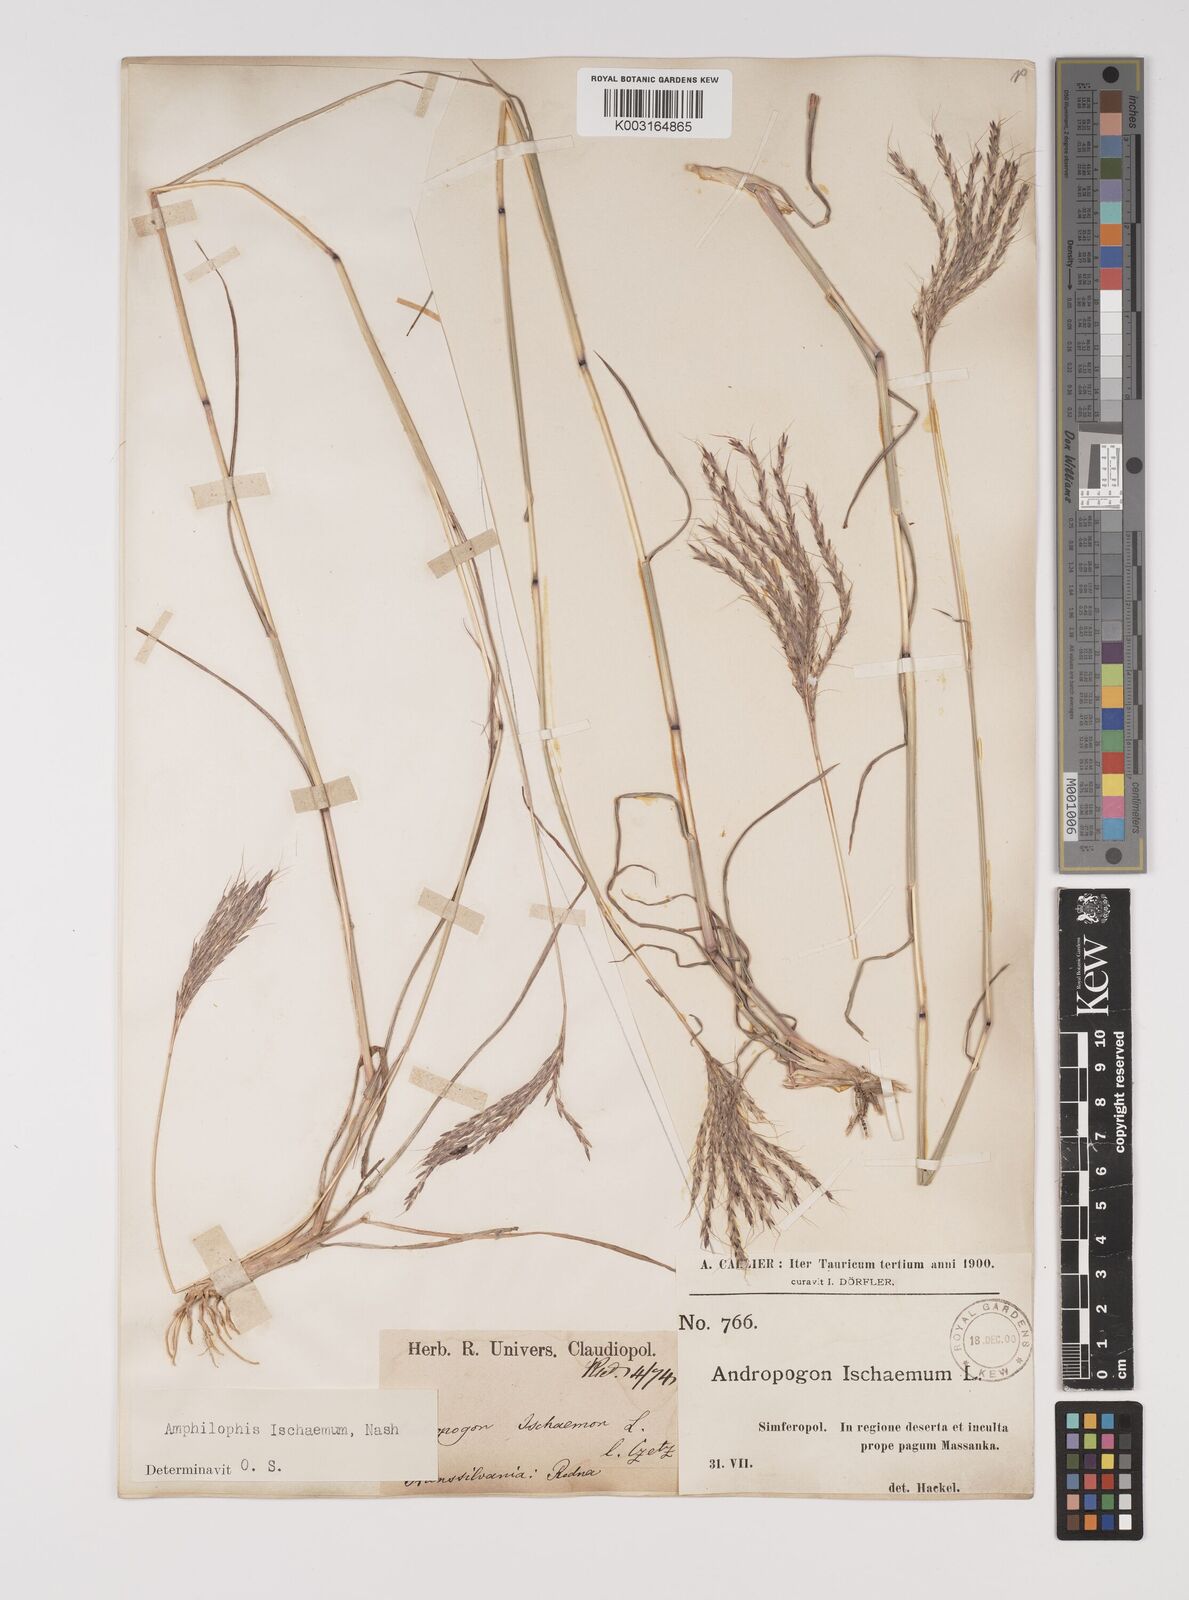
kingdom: Plantae
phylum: Tracheophyta
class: Liliopsida
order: Poales
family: Poaceae
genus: Bothriochloa
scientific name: Bothriochloa ischaemum
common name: Yellow bluestem
